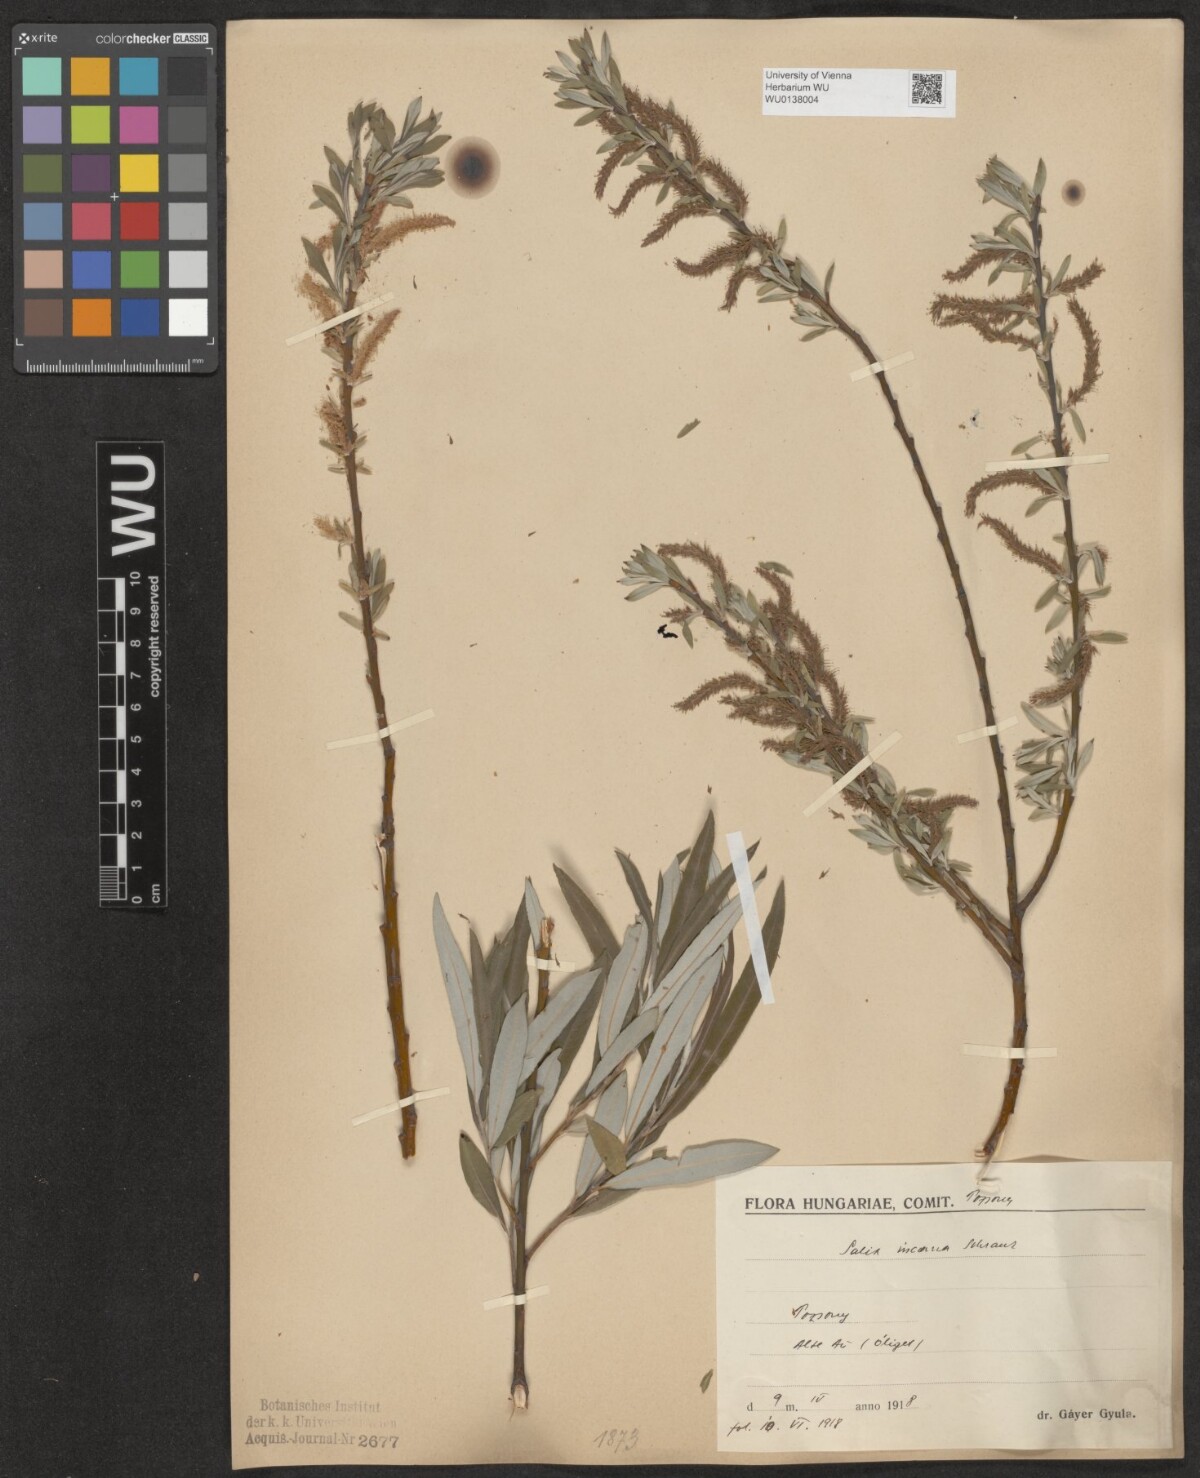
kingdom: Plantae
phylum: Tracheophyta
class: Magnoliopsida
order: Malpighiales
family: Salicaceae
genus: Salix
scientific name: Salix eleagnos
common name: Elaeagnus willow
